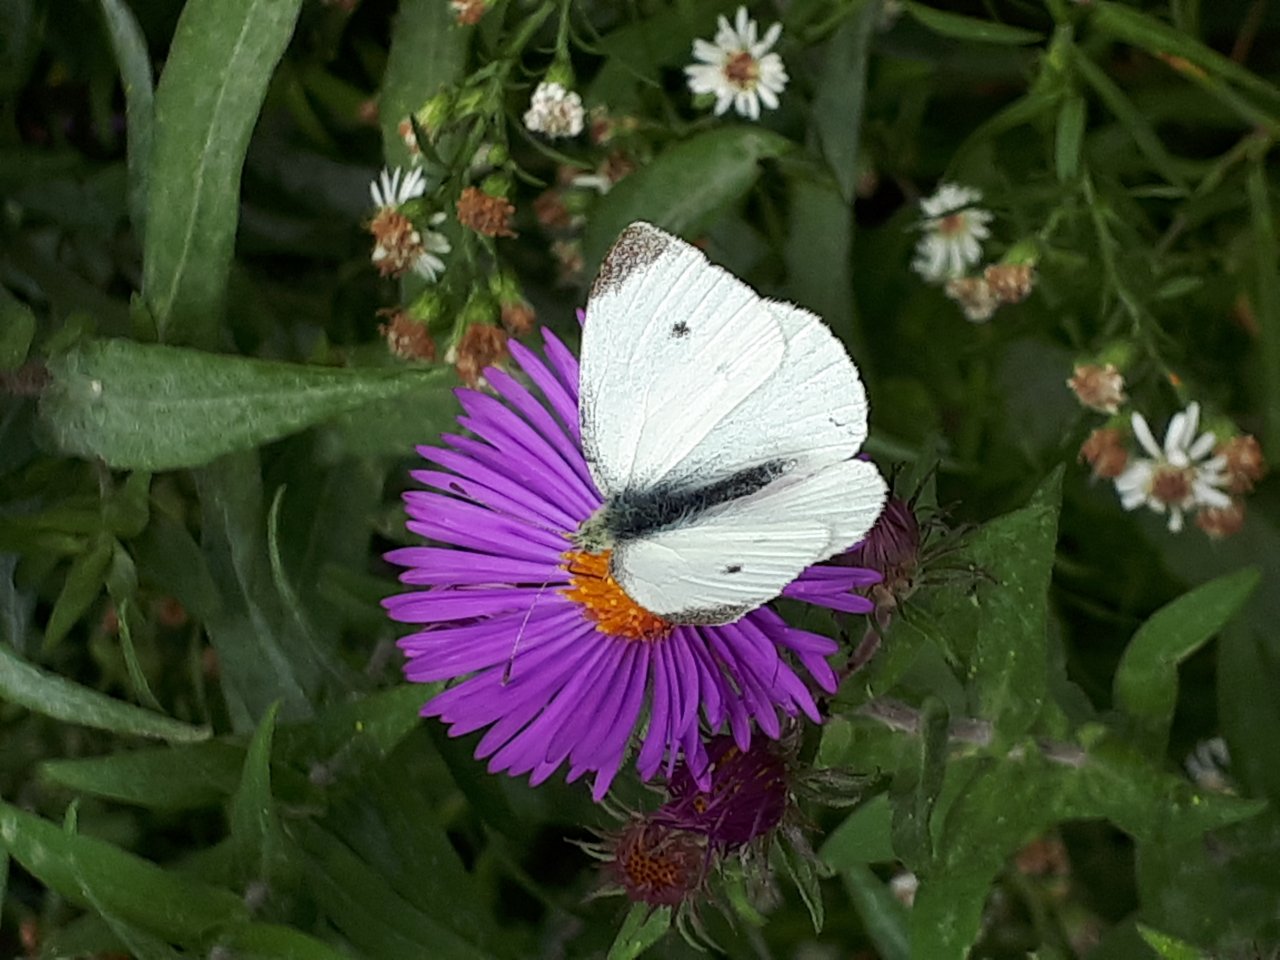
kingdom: Animalia
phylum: Arthropoda
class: Insecta
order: Lepidoptera
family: Pieridae
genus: Pieris
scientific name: Pieris rapae
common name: Cabbage White
